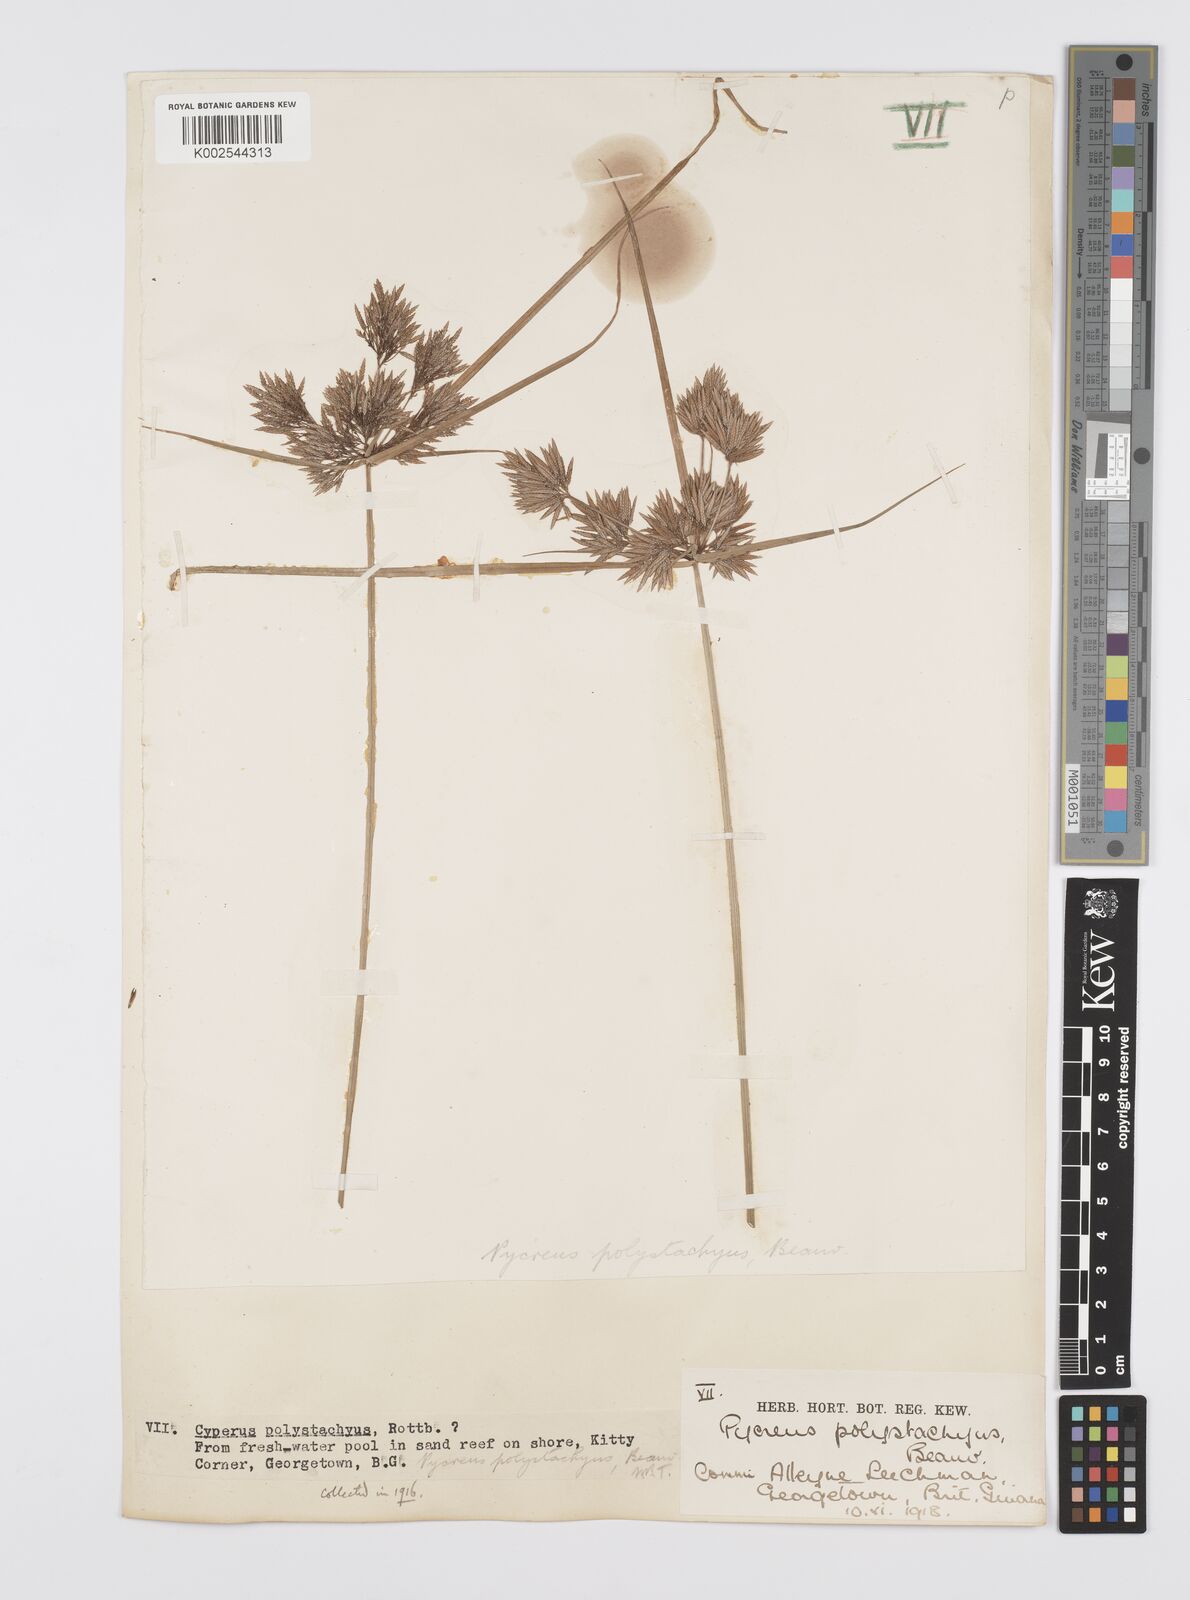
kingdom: Plantae
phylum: Tracheophyta
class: Liliopsida
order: Poales
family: Cyperaceae
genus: Cyperus
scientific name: Cyperus polystachyos
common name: Bunchy flat sedge
